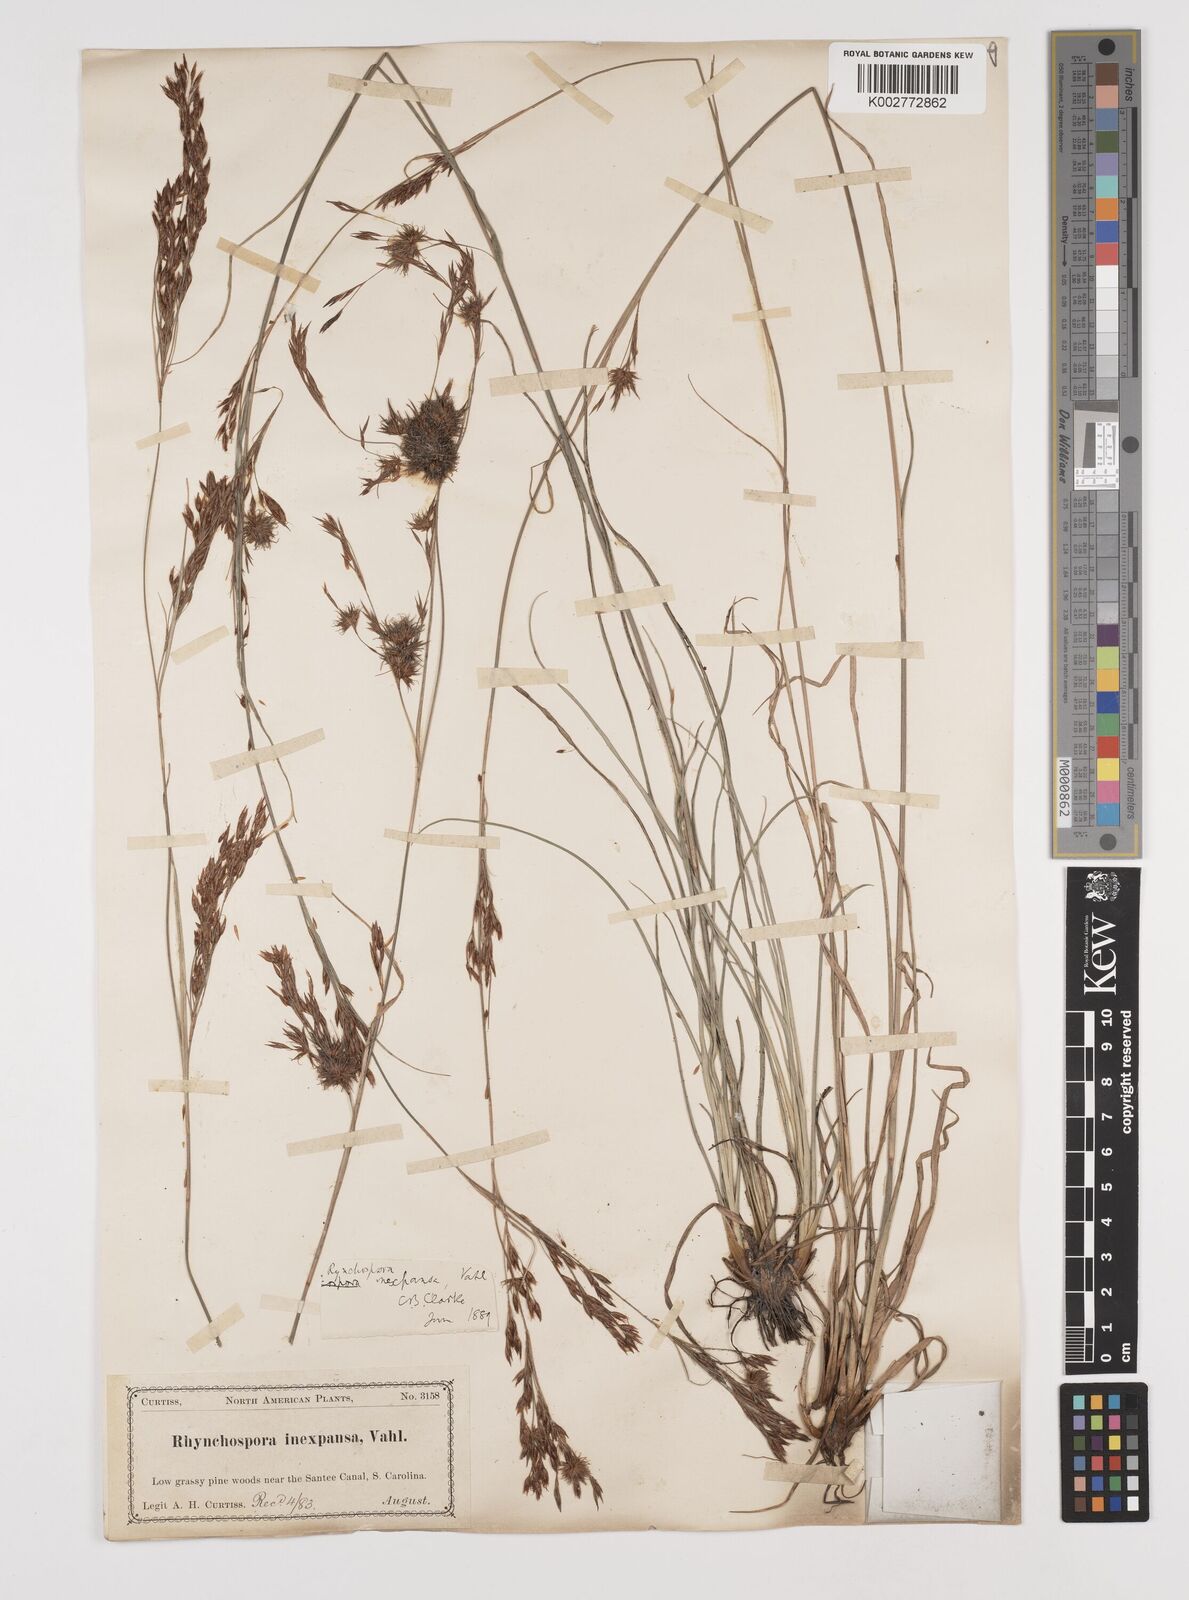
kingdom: Plantae
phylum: Tracheophyta
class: Liliopsida
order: Poales
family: Cyperaceae
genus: Rhynchospora
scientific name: Rhynchospora inexpansa
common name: Nodding beaksedge
